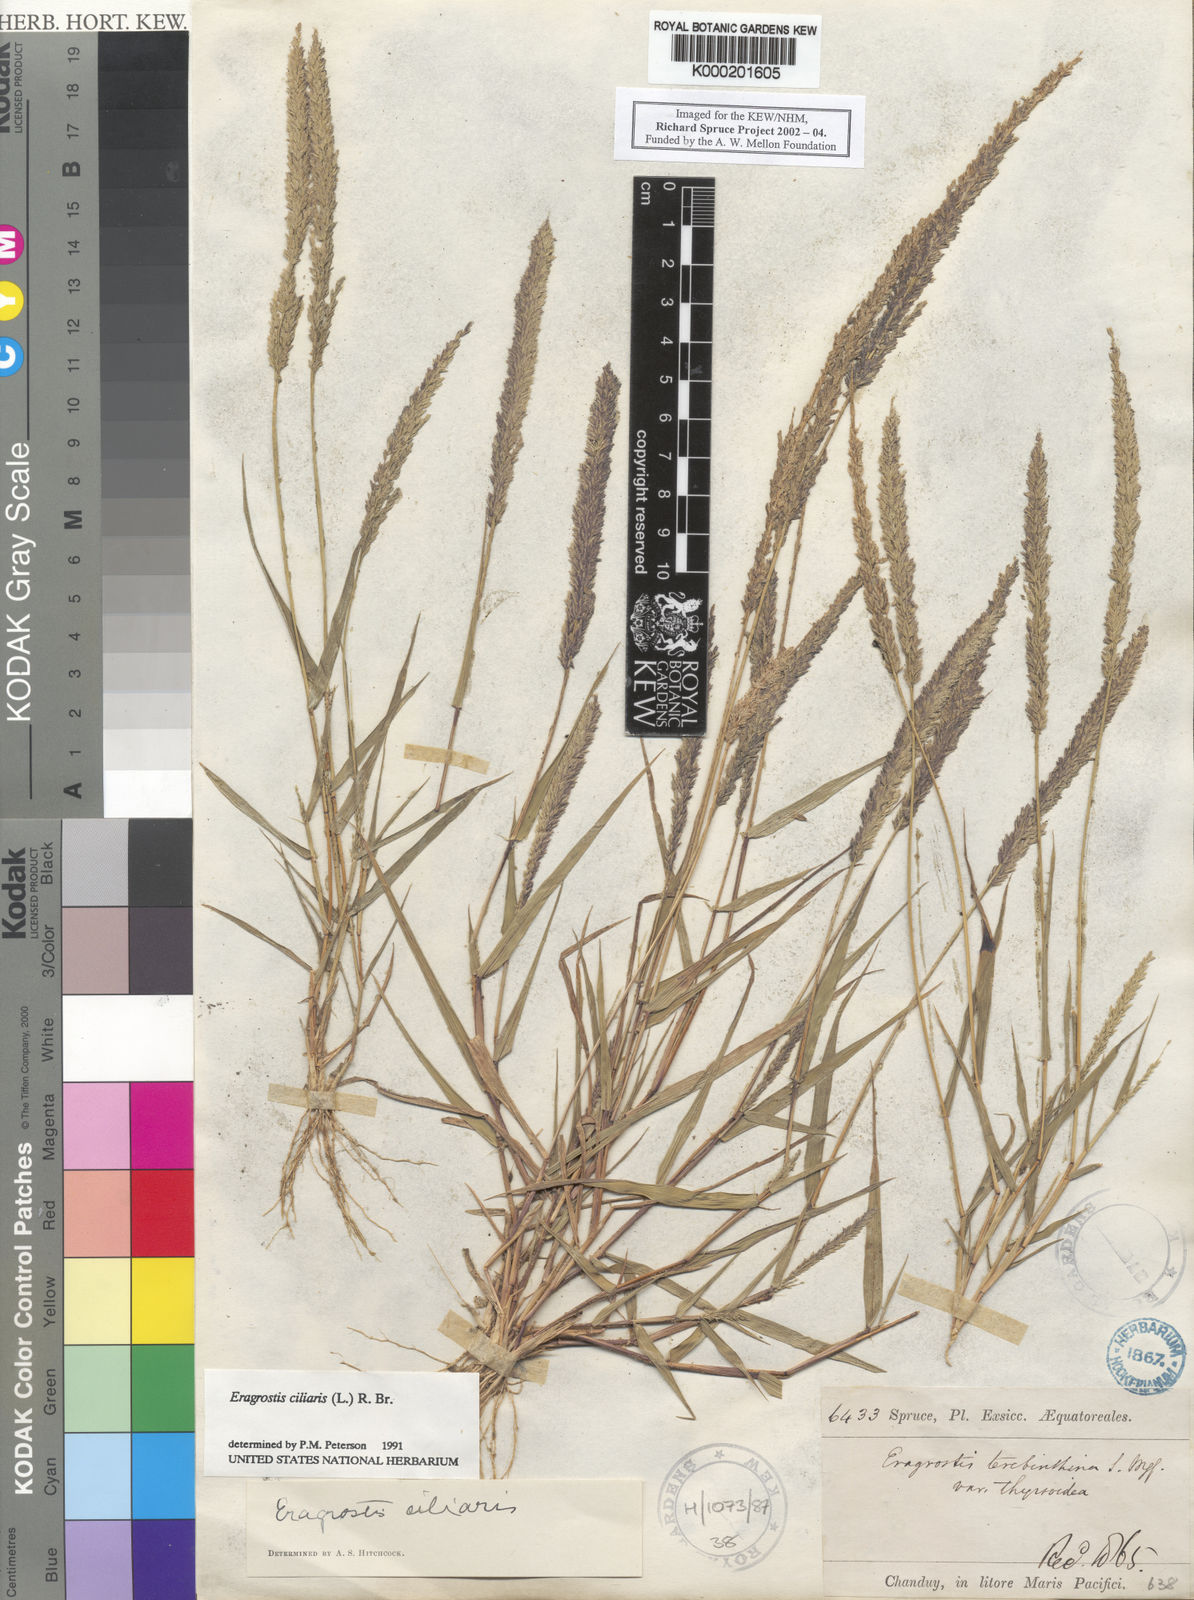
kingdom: Plantae
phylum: Tracheophyta
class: Liliopsida
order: Poales
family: Poaceae
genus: Eragrostis
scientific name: Eragrostis ciliaris
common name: Gophertail lovegrass
